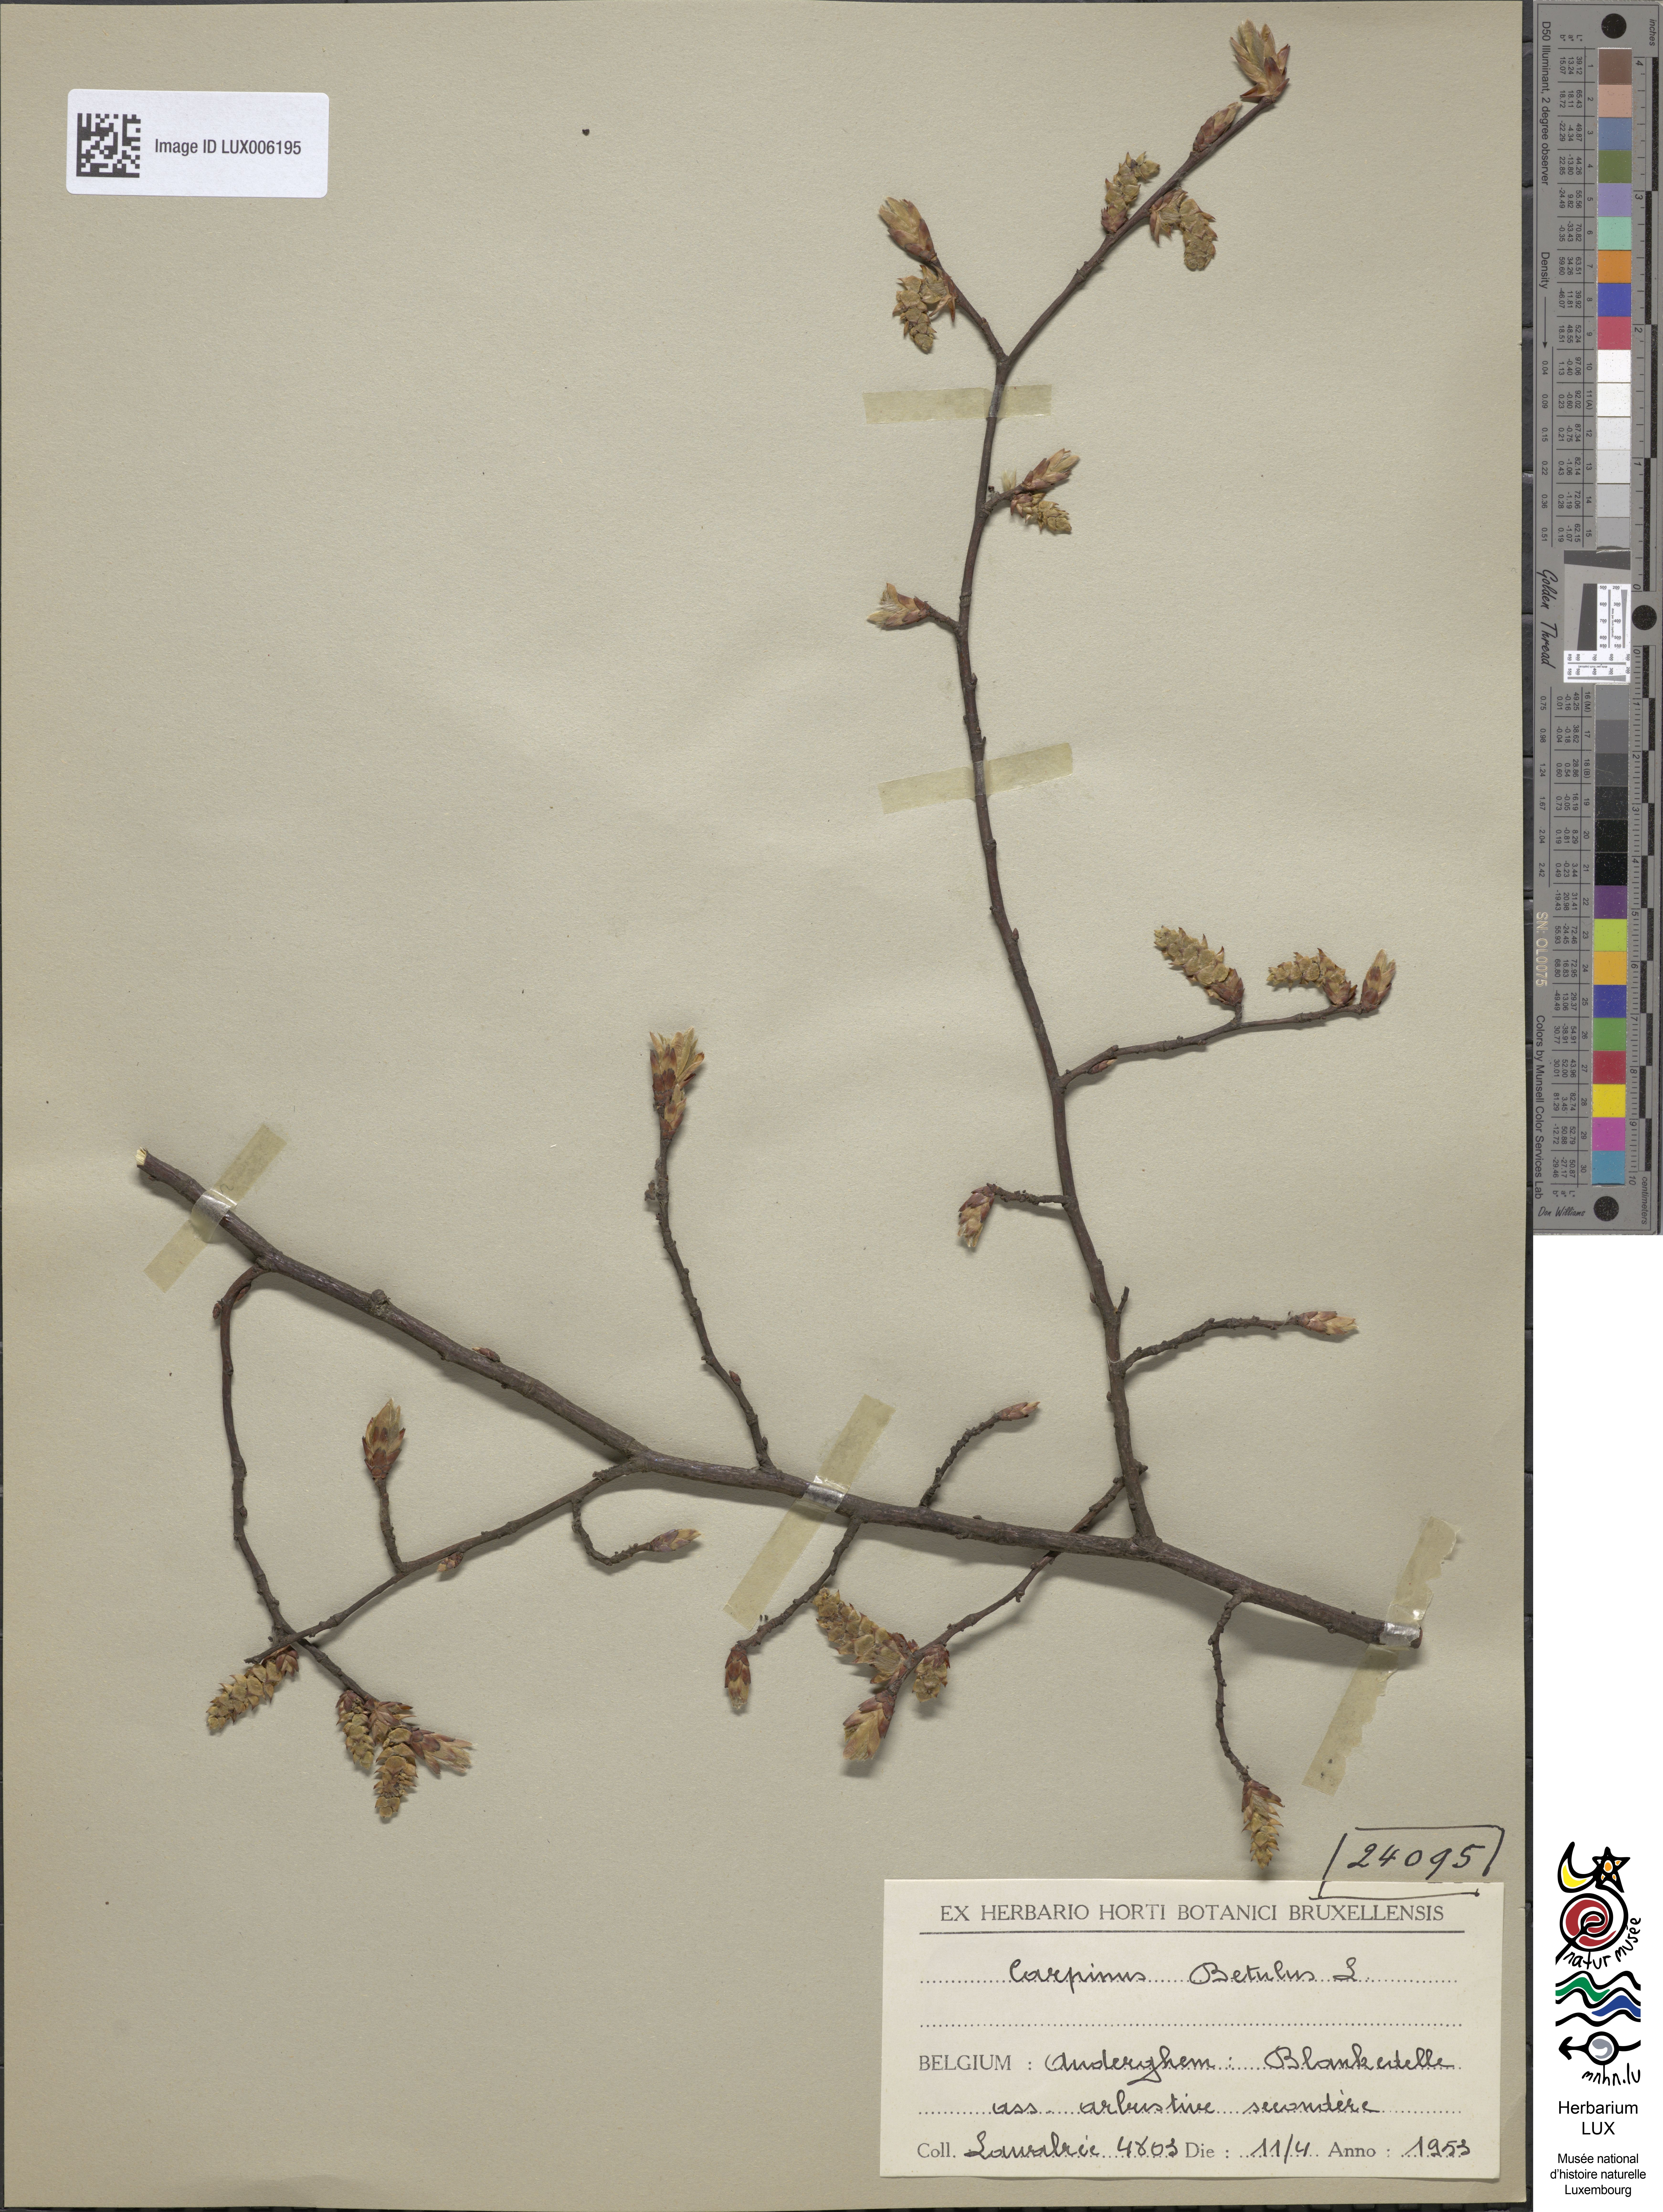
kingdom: Plantae
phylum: Tracheophyta
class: Magnoliopsida
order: Fagales
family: Betulaceae
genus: Carpinus
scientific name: Carpinus betulus
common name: Hornbeam
